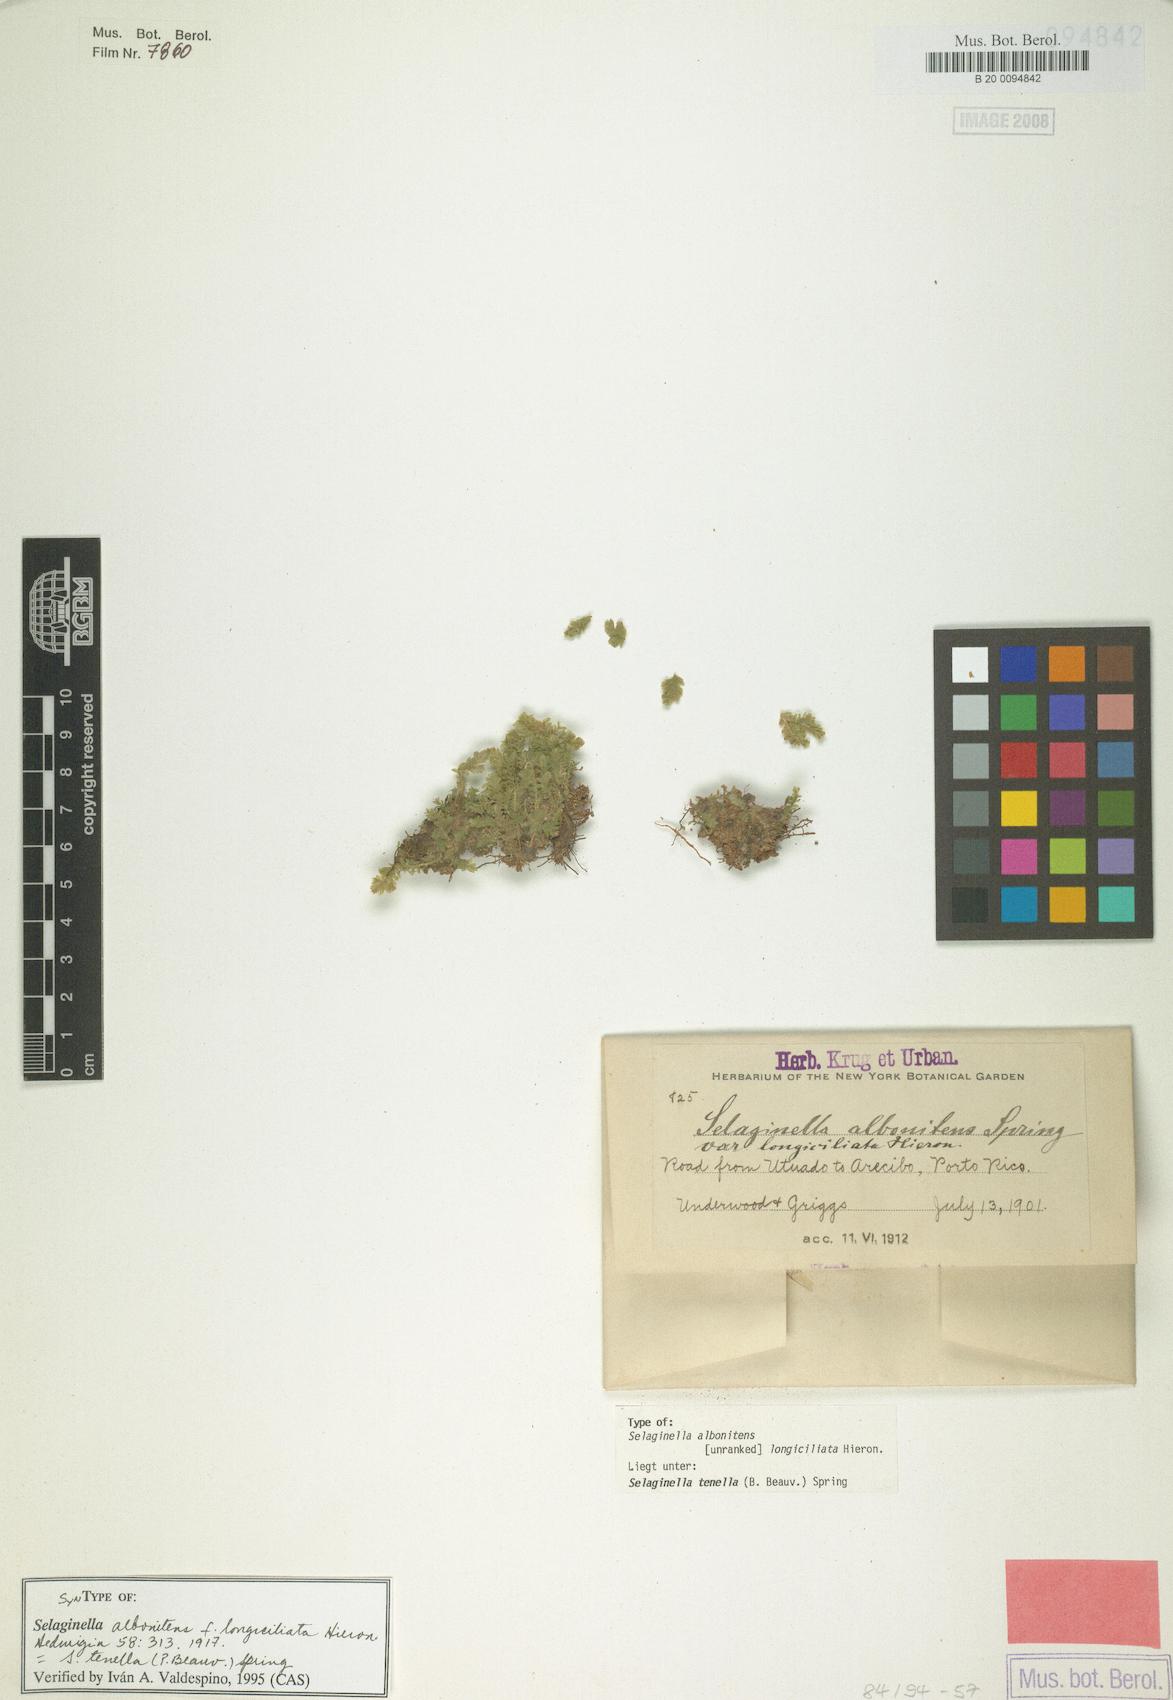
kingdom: Plantae
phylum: Tracheophyta
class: Lycopodiopsida
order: Selaginellales
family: Selaginellaceae
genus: Selaginella
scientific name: Selaginella tenella
